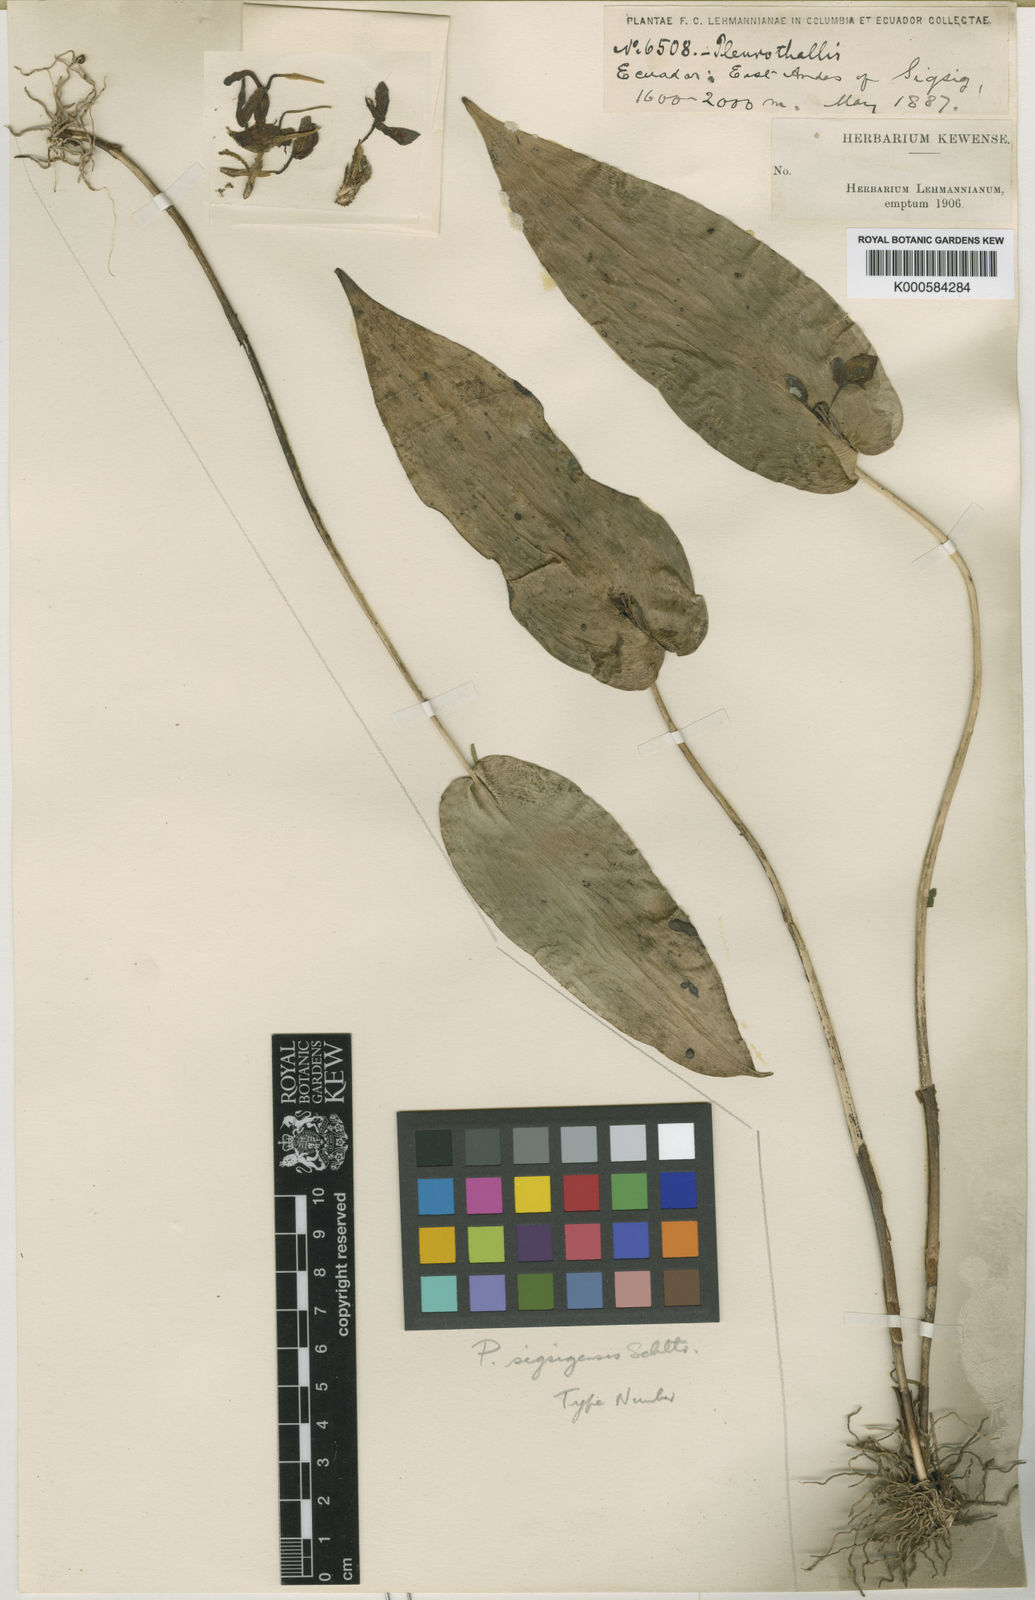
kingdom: Plantae
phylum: Tracheophyta
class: Liliopsida
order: Asparagales
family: Orchidaceae
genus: Pleurothallis
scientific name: Pleurothallis bivalvis
